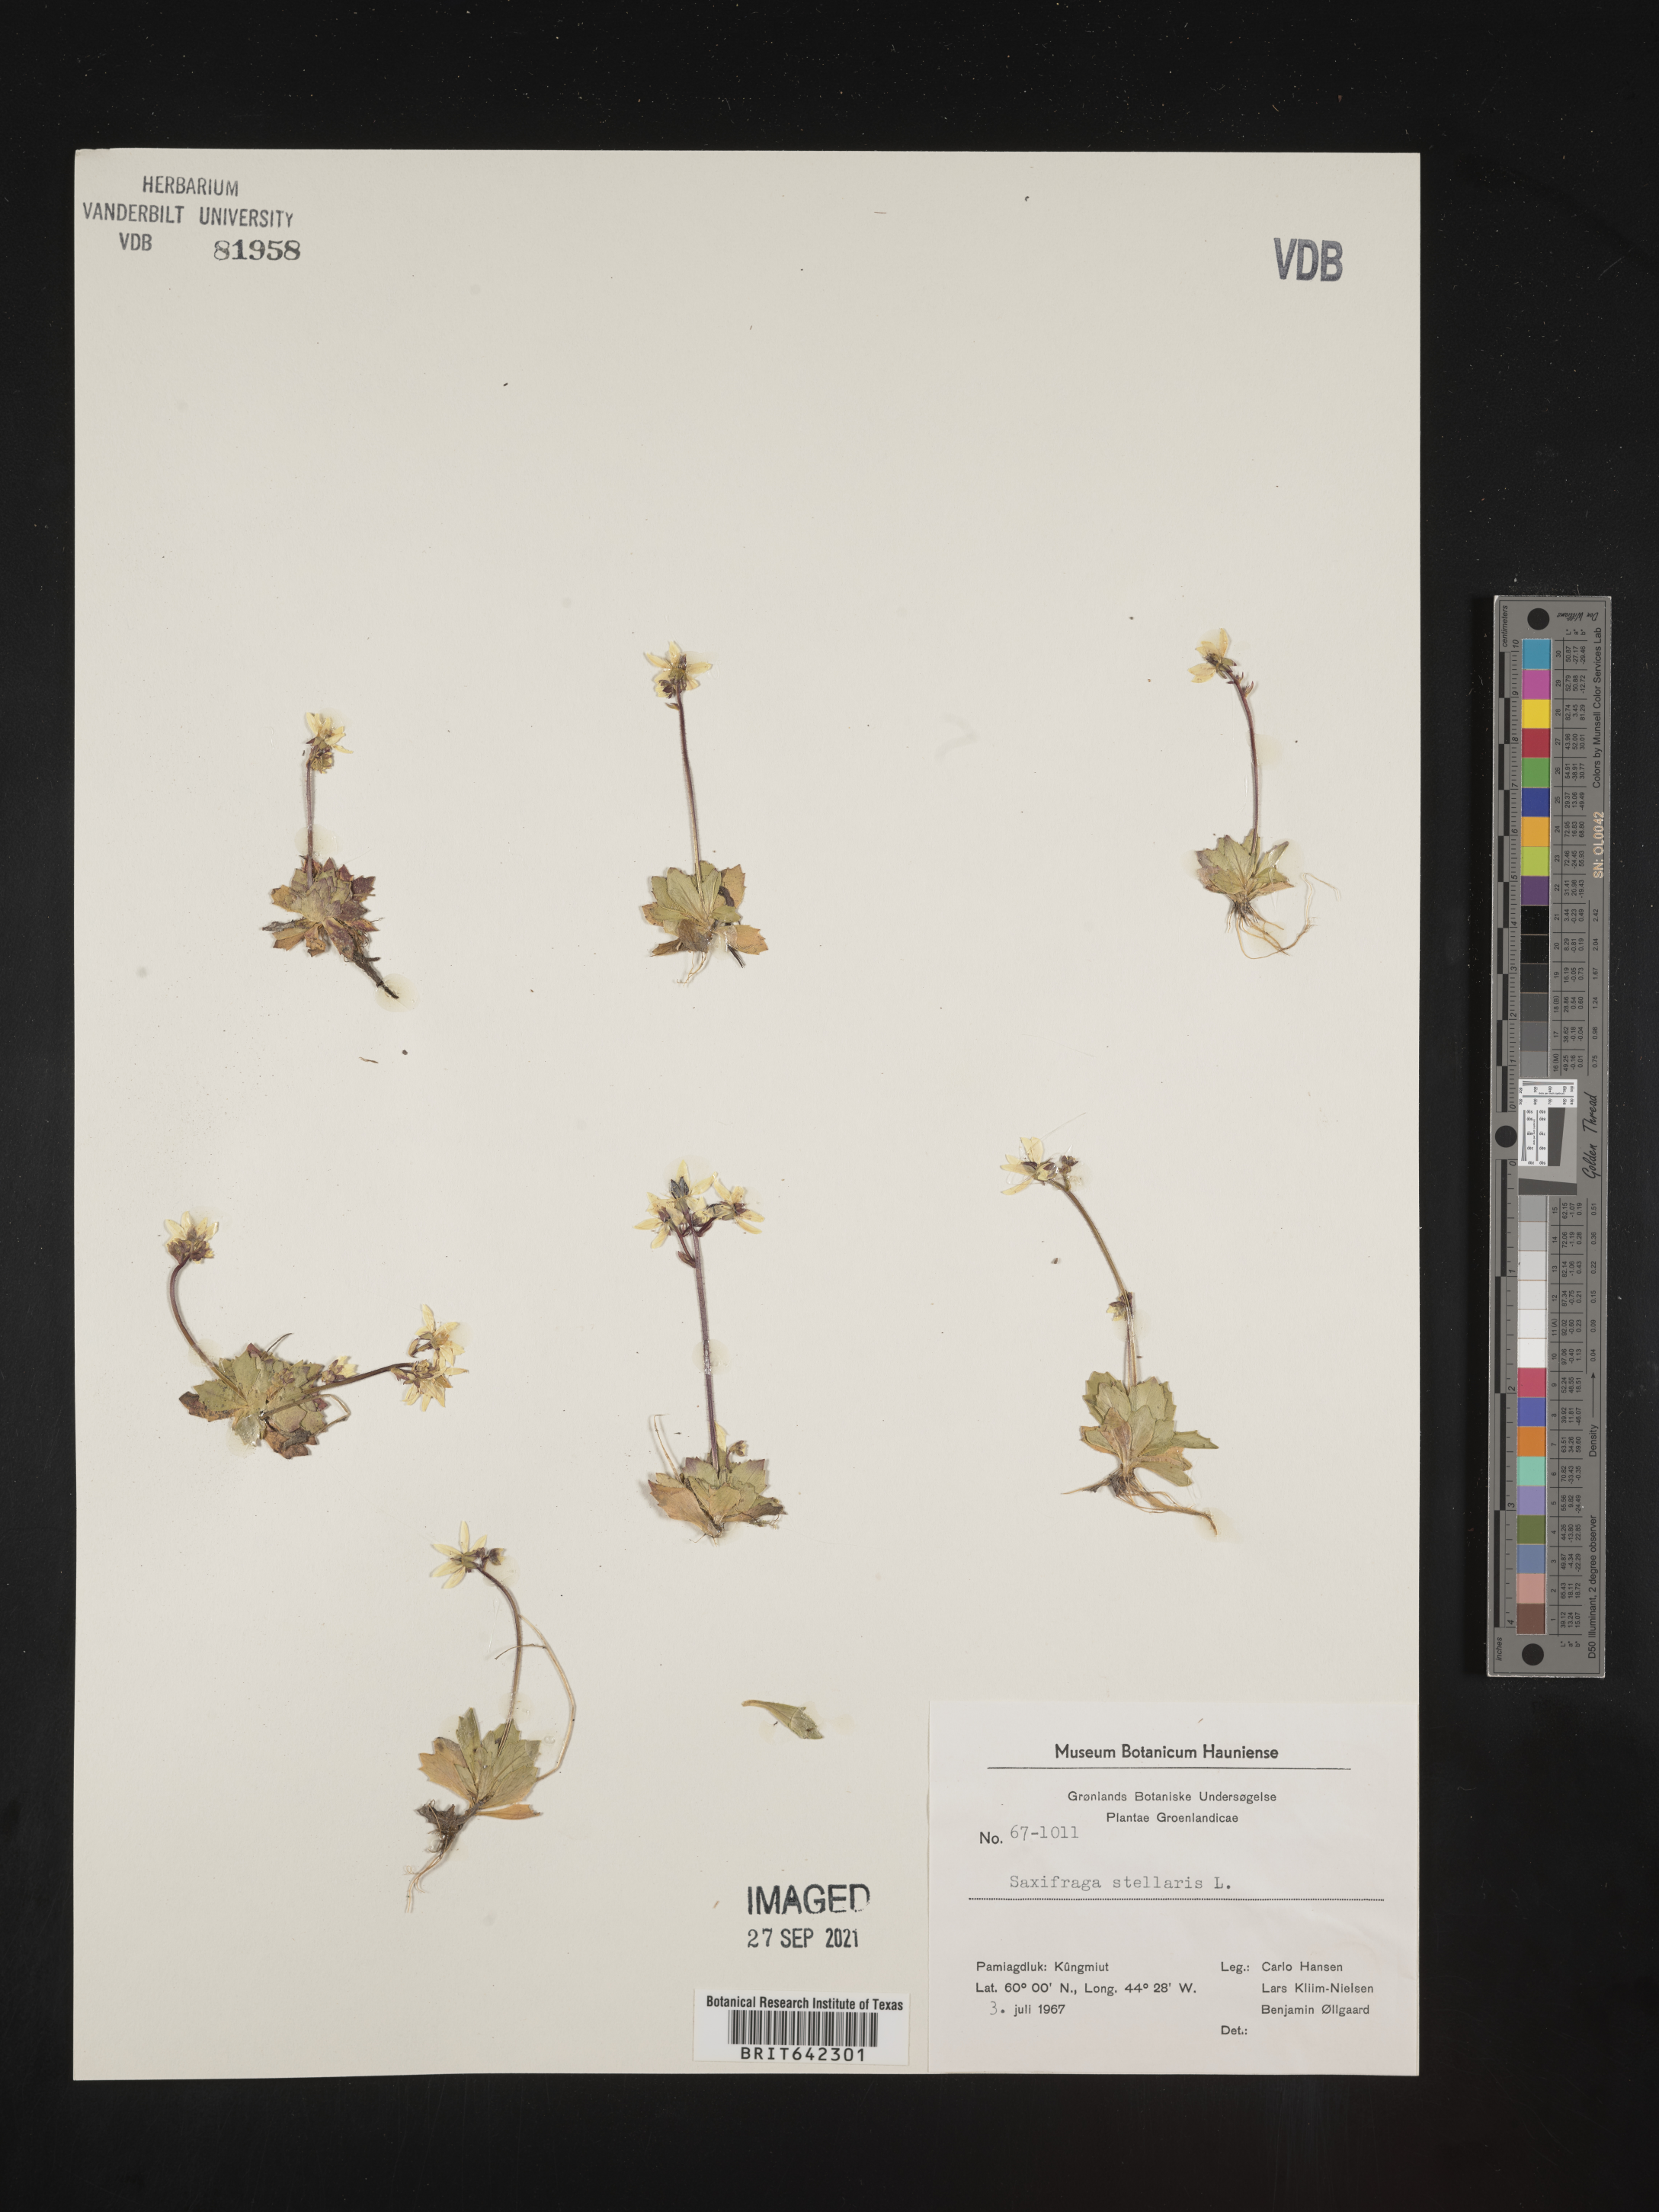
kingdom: Plantae
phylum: Tracheophyta
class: Magnoliopsida
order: Saxifragales
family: Saxifragaceae
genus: Saxifraga
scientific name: Saxifraga
